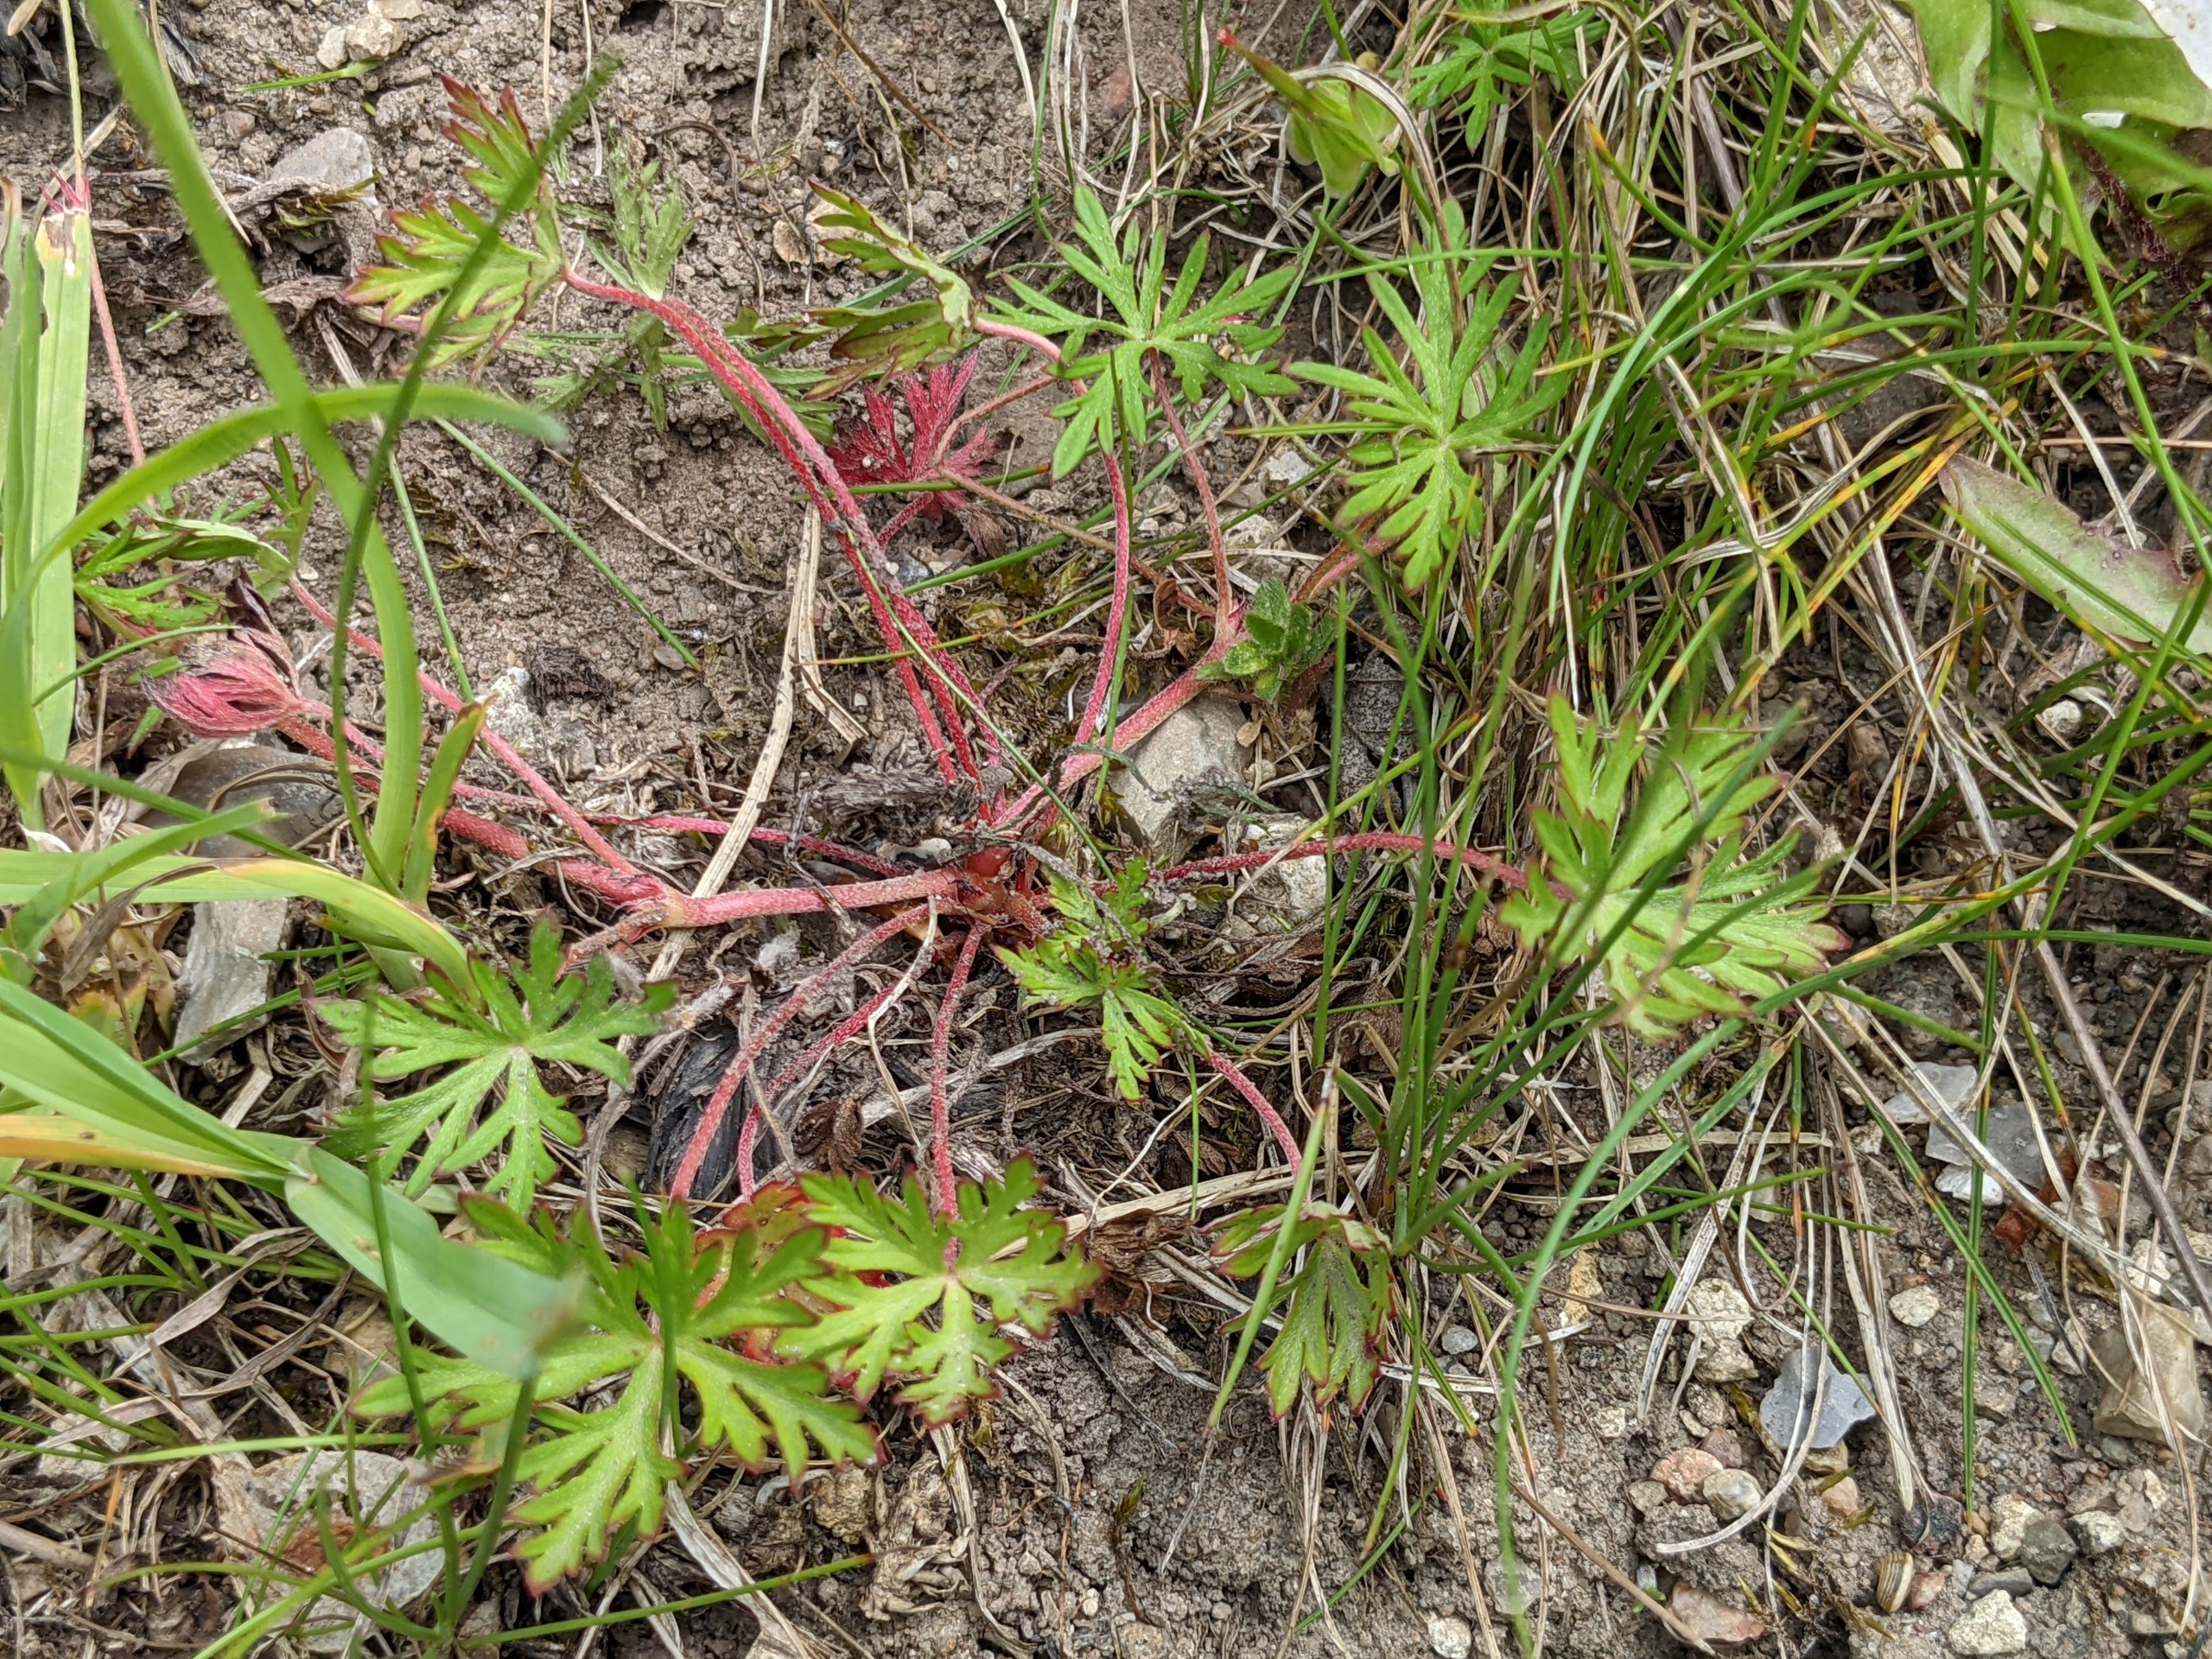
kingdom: Plantae
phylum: Tracheophyta
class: Magnoliopsida
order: Geraniales
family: Geraniaceae
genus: Geranium
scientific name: Geranium columbinum
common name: Storbægret storkenæb
